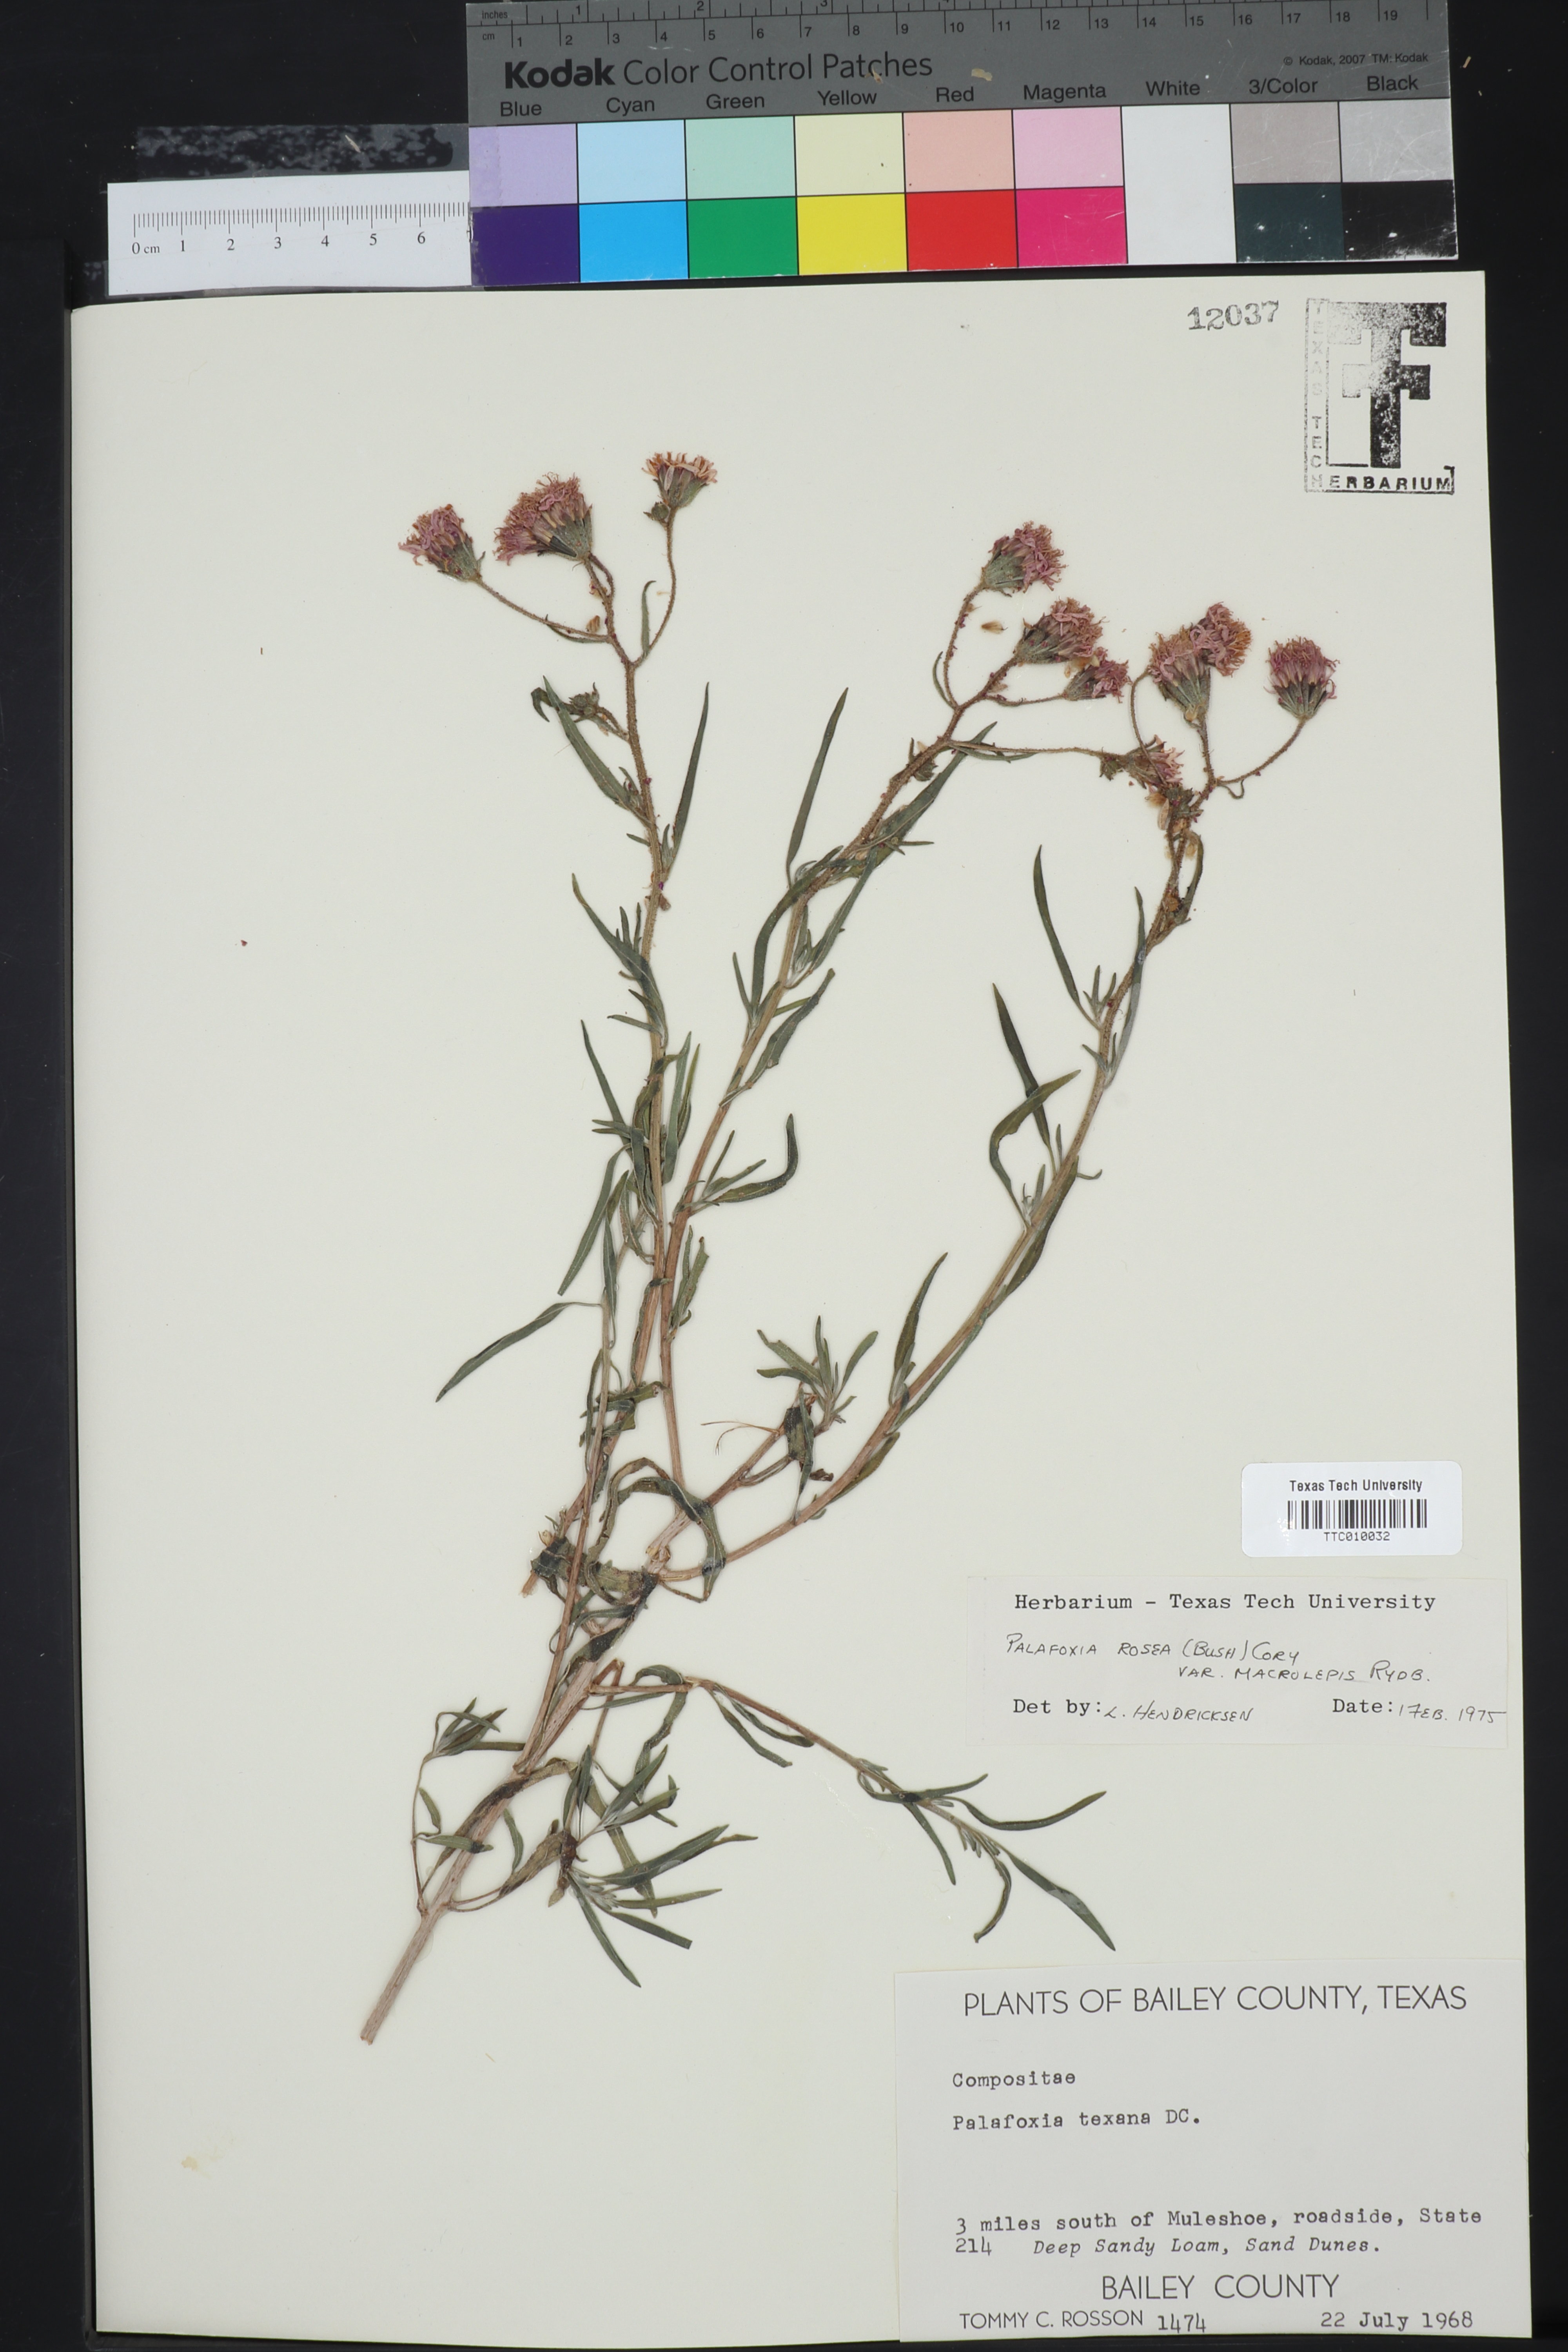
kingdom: Plantae
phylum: Tracheophyta
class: Magnoliopsida
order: Asterales
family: Asteraceae
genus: Palafoxia
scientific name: Palafoxia rosea
